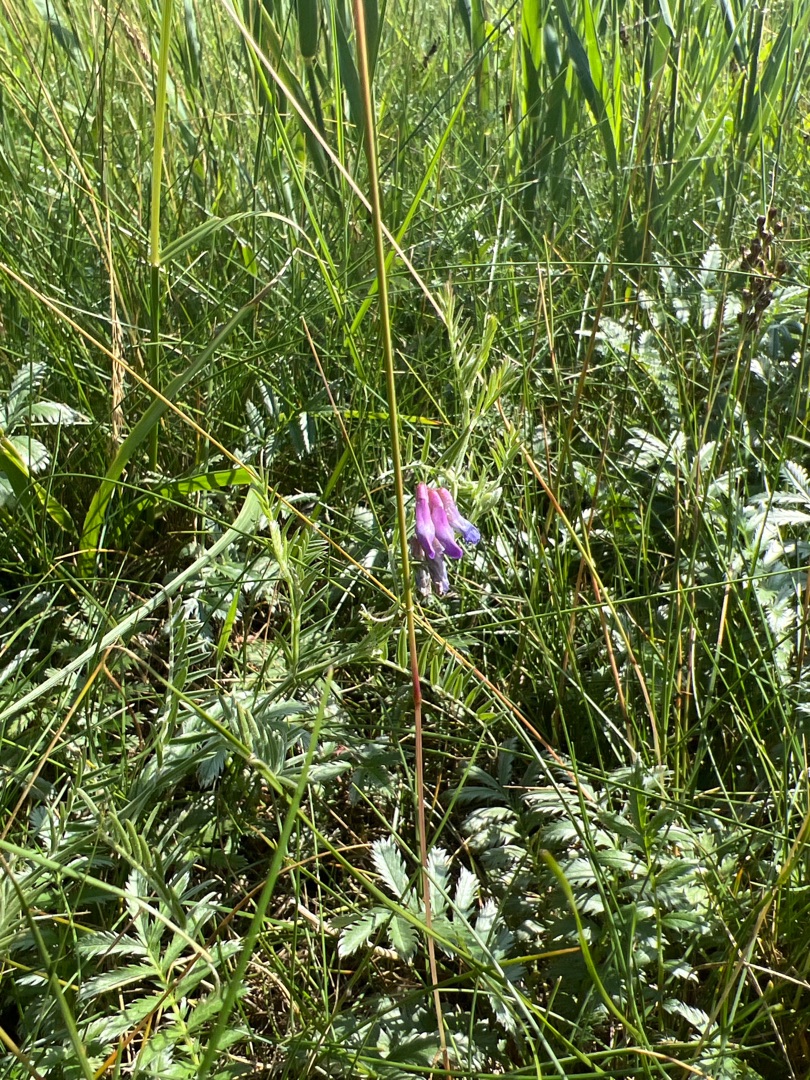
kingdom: Plantae
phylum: Tracheophyta
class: Magnoliopsida
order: Fabales
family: Fabaceae
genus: Vicia
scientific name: Vicia cracca
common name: Muse-vikke
